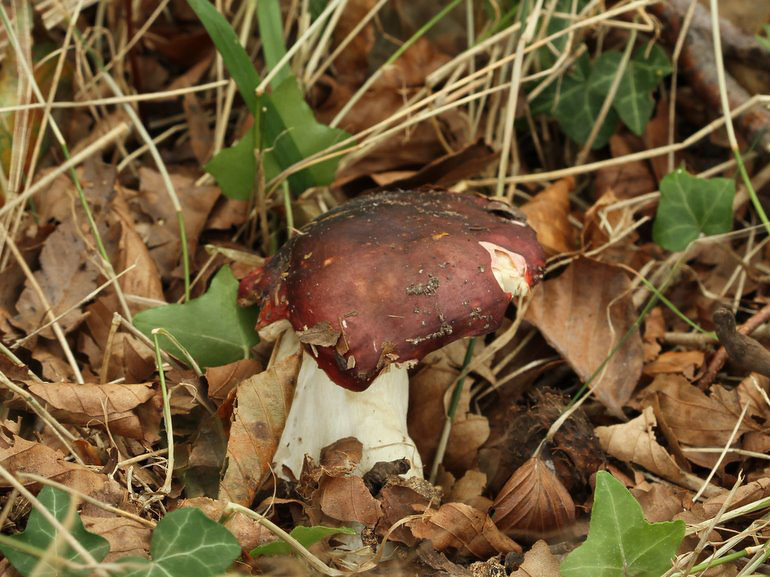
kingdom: Fungi
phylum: Basidiomycota
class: Agaricomycetes
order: Russulales
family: Russulaceae
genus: Russula
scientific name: Russula atropurpurea
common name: purpurbroget skørhat
